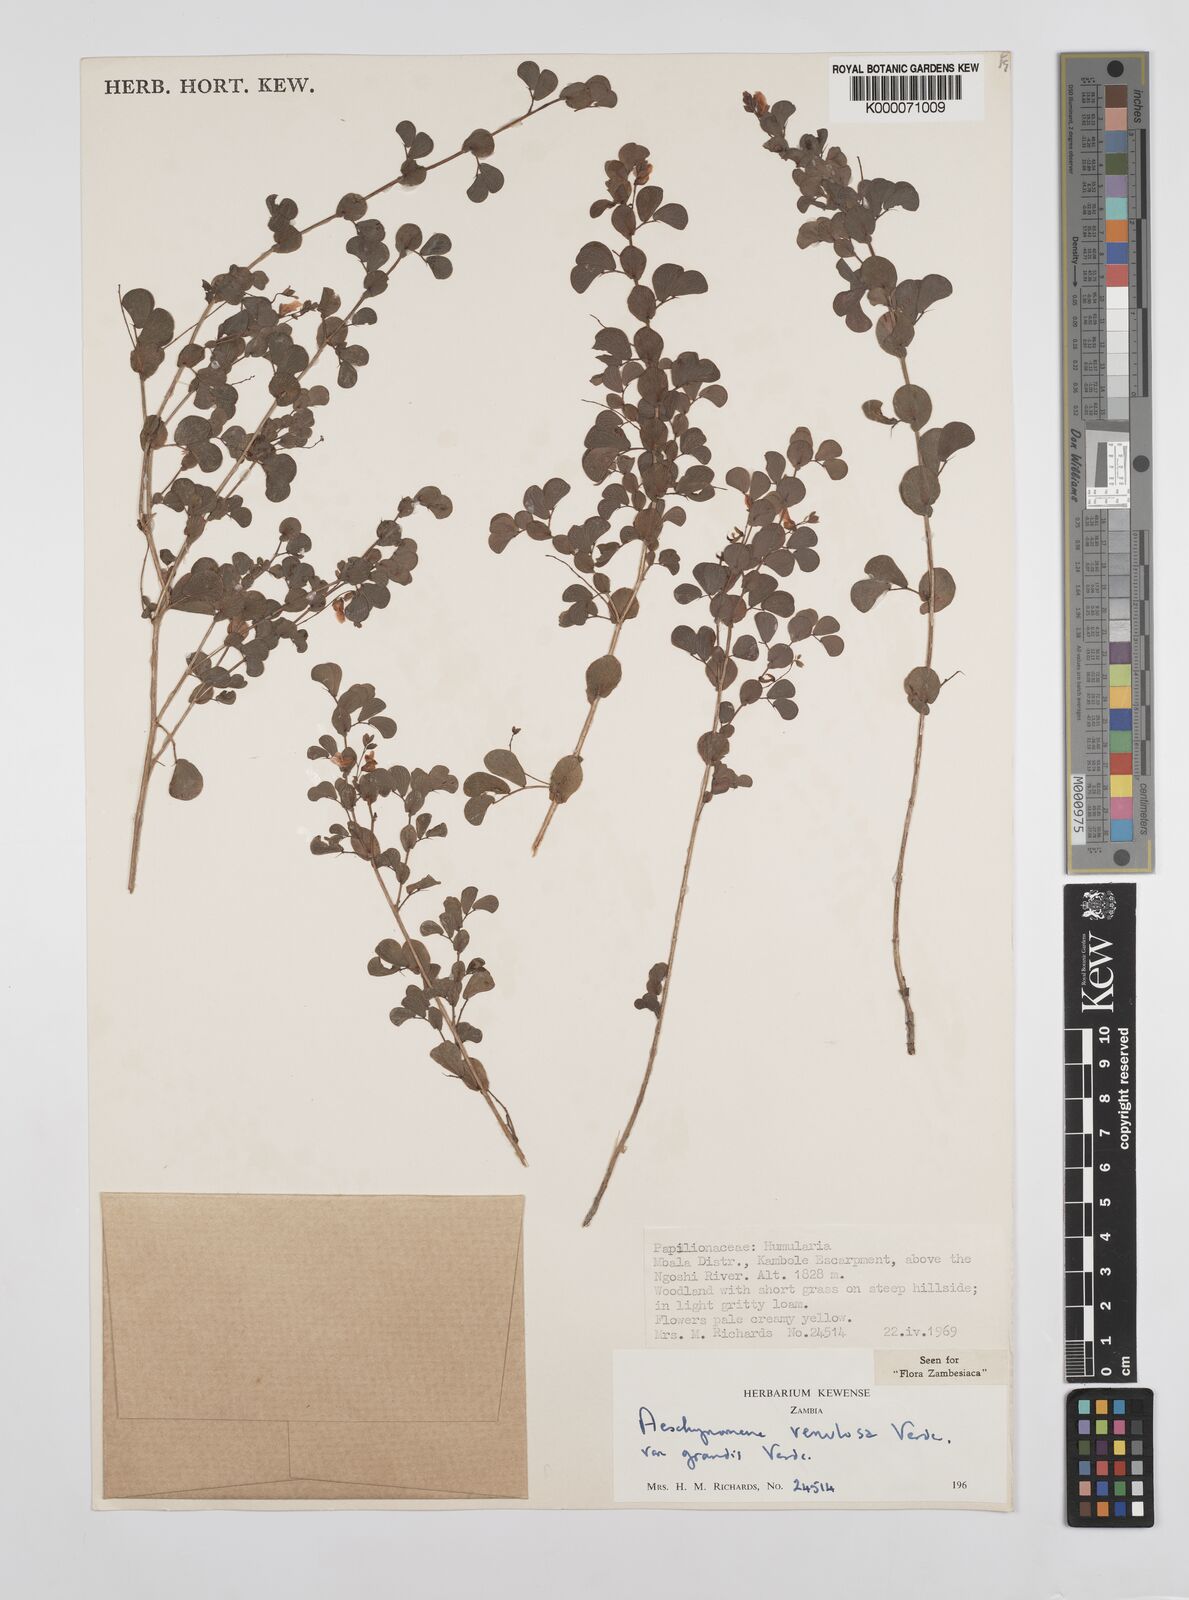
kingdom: Plantae
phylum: Tracheophyta
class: Magnoliopsida
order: Fabales
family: Fabaceae
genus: Aeschynomene
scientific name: Aeschynomene venulosa
